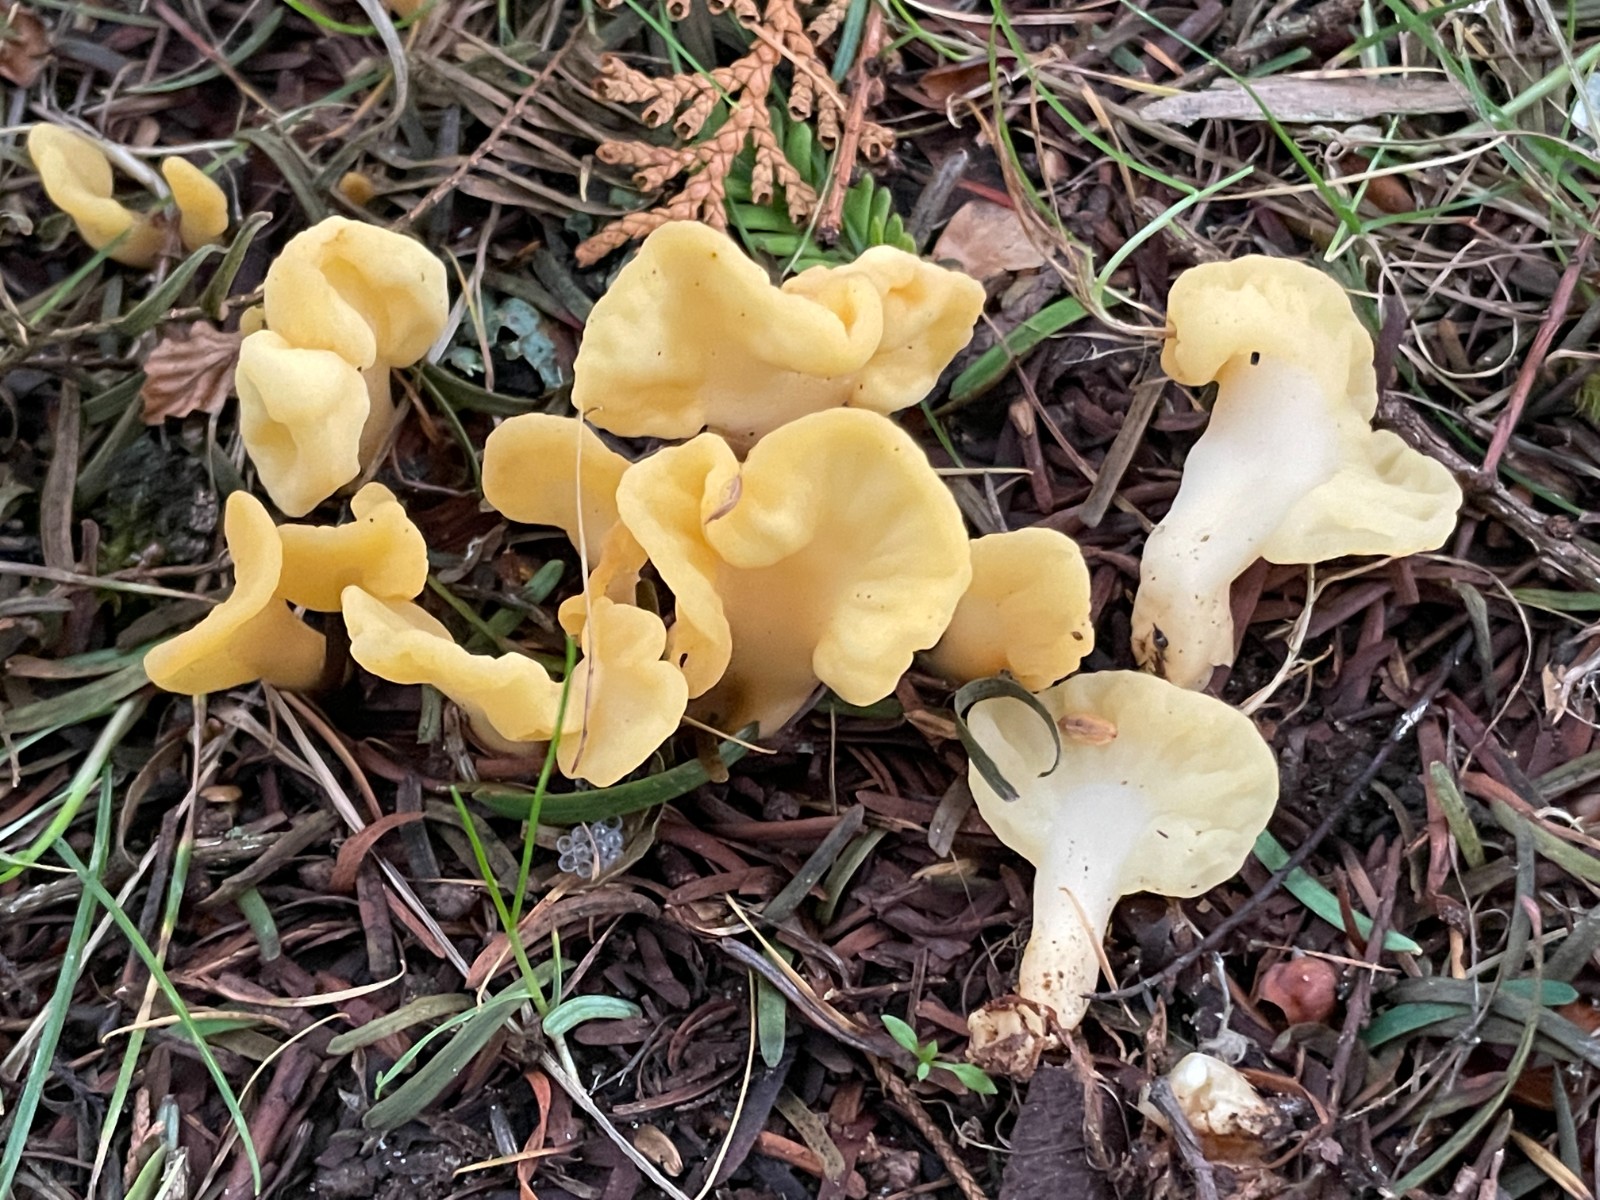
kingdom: Fungi
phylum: Ascomycota
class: Leotiomycetes
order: Rhytismatales
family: Cudoniaceae
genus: Spathularia
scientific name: Spathularia flavida
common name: gul spatelsvamp
